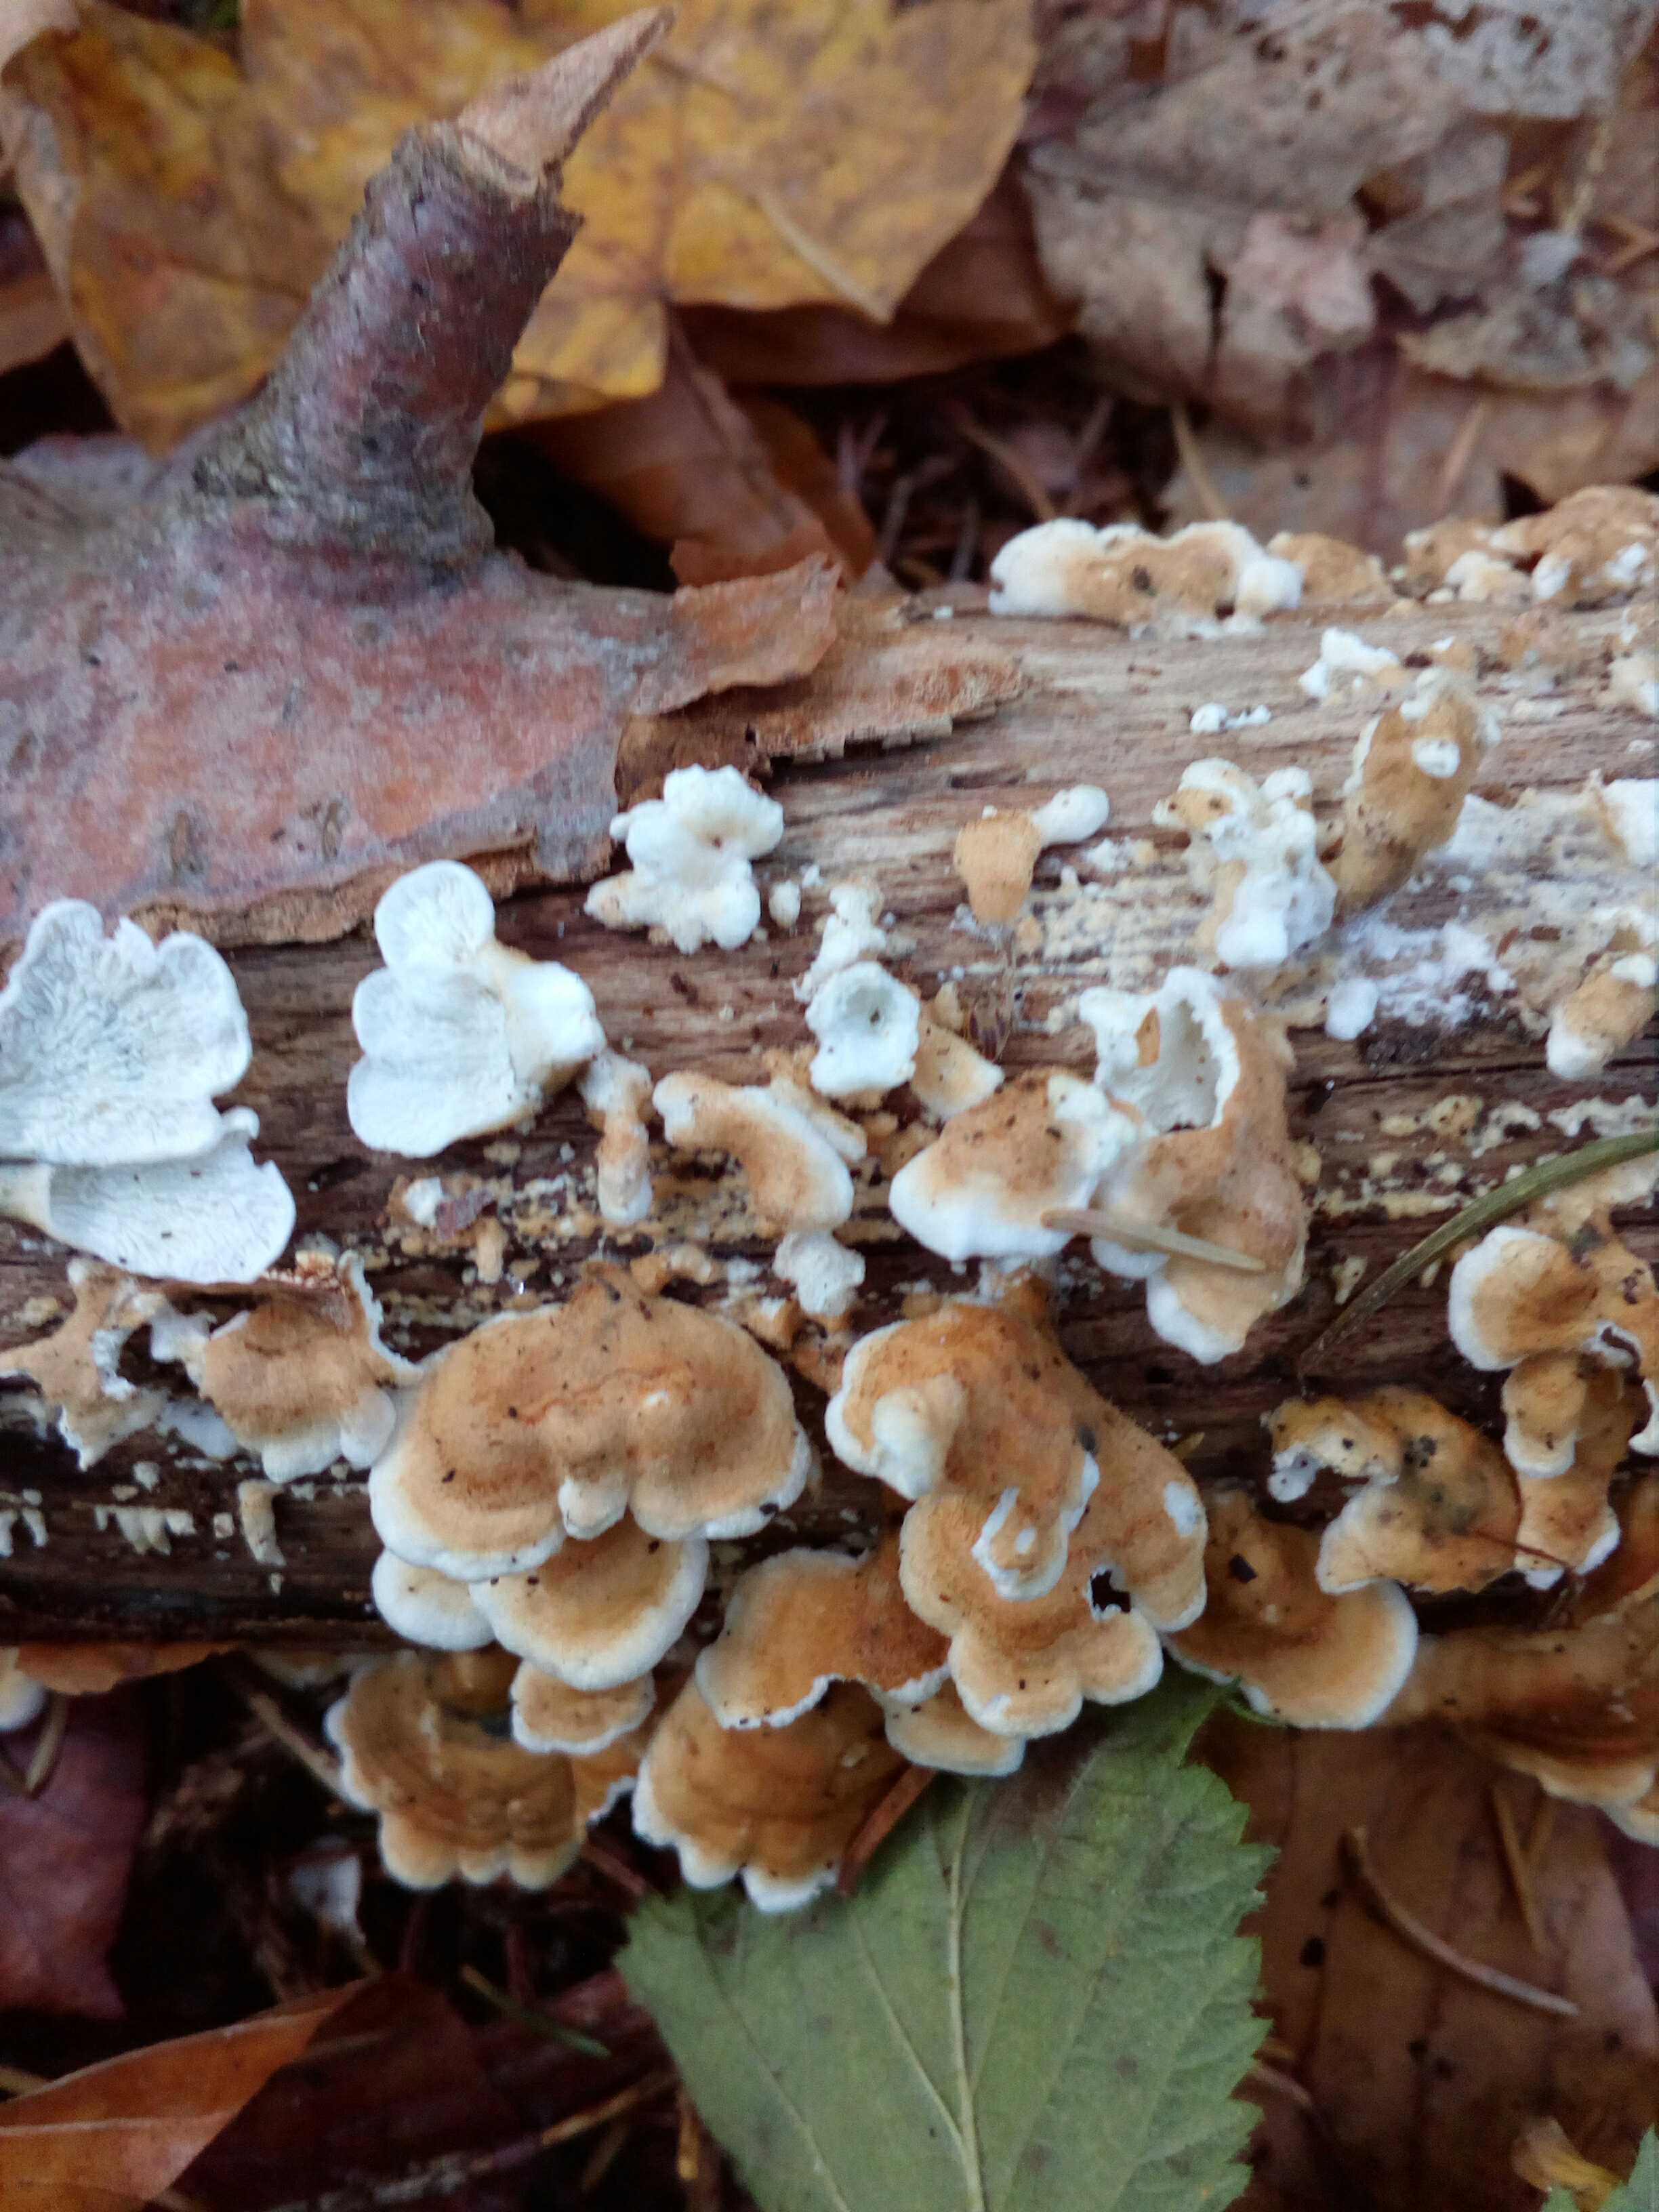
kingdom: Fungi
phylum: Basidiomycota
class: Agaricomycetes
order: Amylocorticiales
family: Amylocorticiaceae
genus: Plicaturopsis
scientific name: Plicaturopsis crispa
